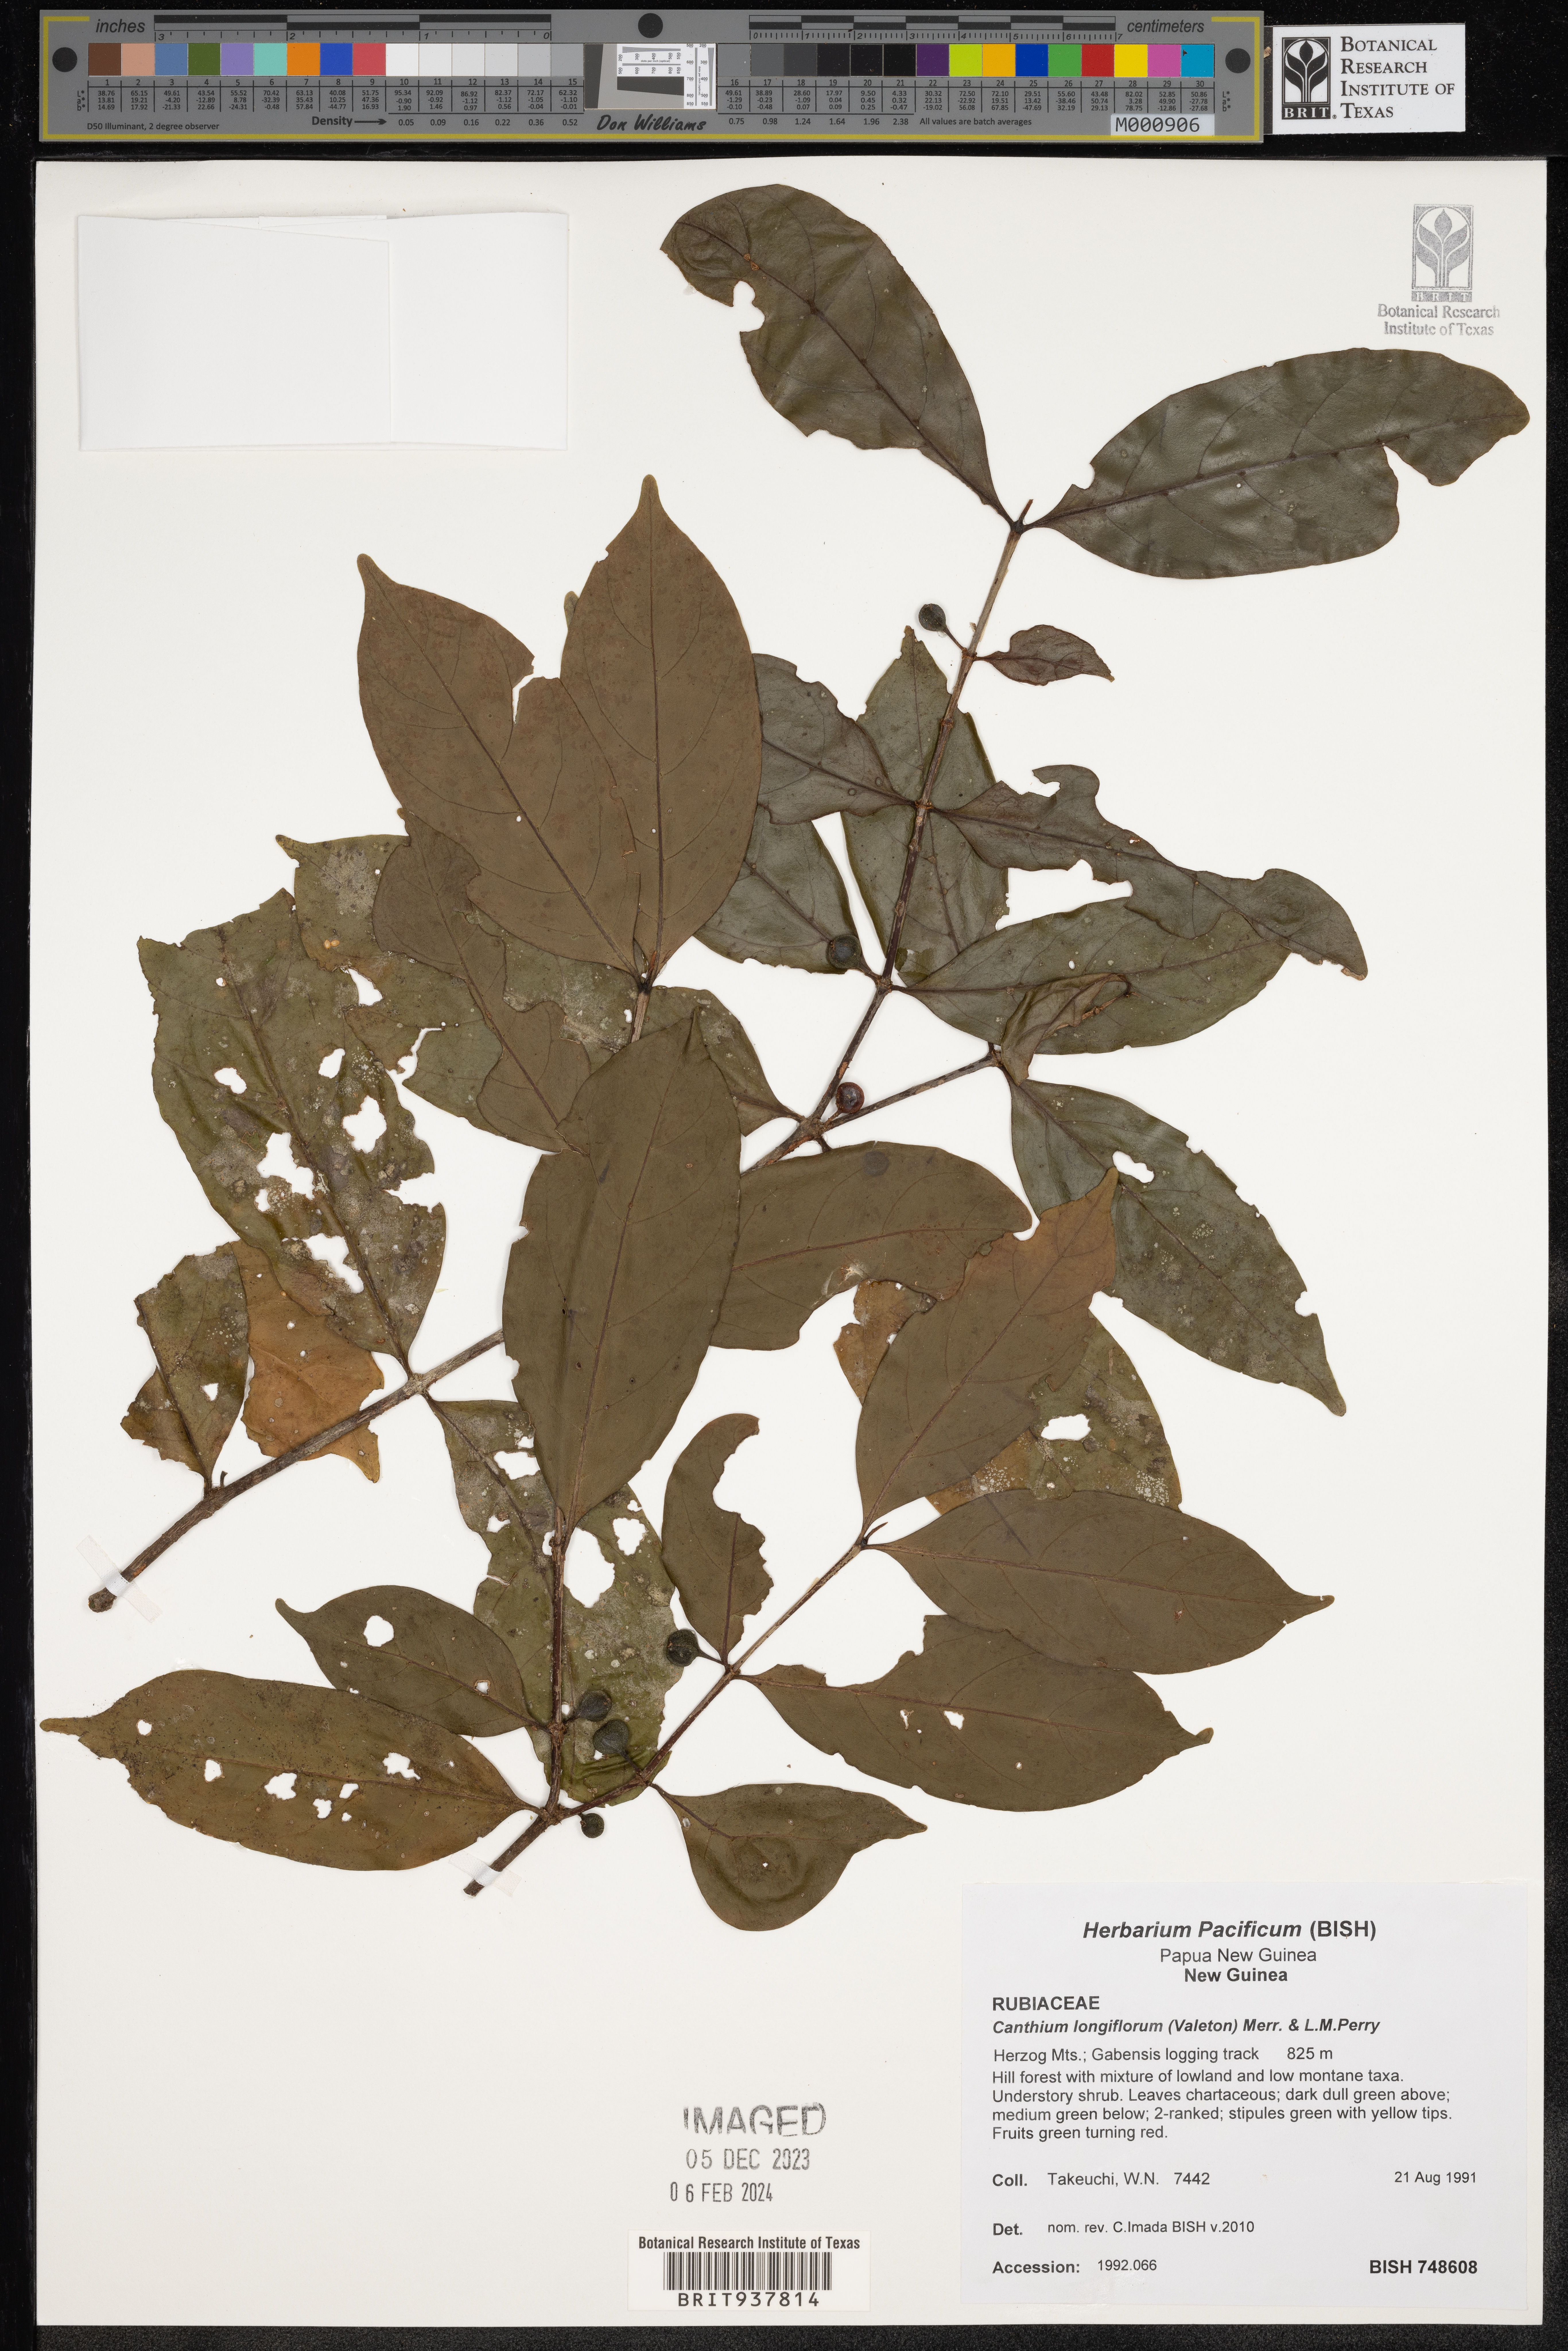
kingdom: Plantae
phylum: Tracheophyta
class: Magnoliopsida
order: Gentianales
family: Rubiaceae
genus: Canthium
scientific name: Canthium
